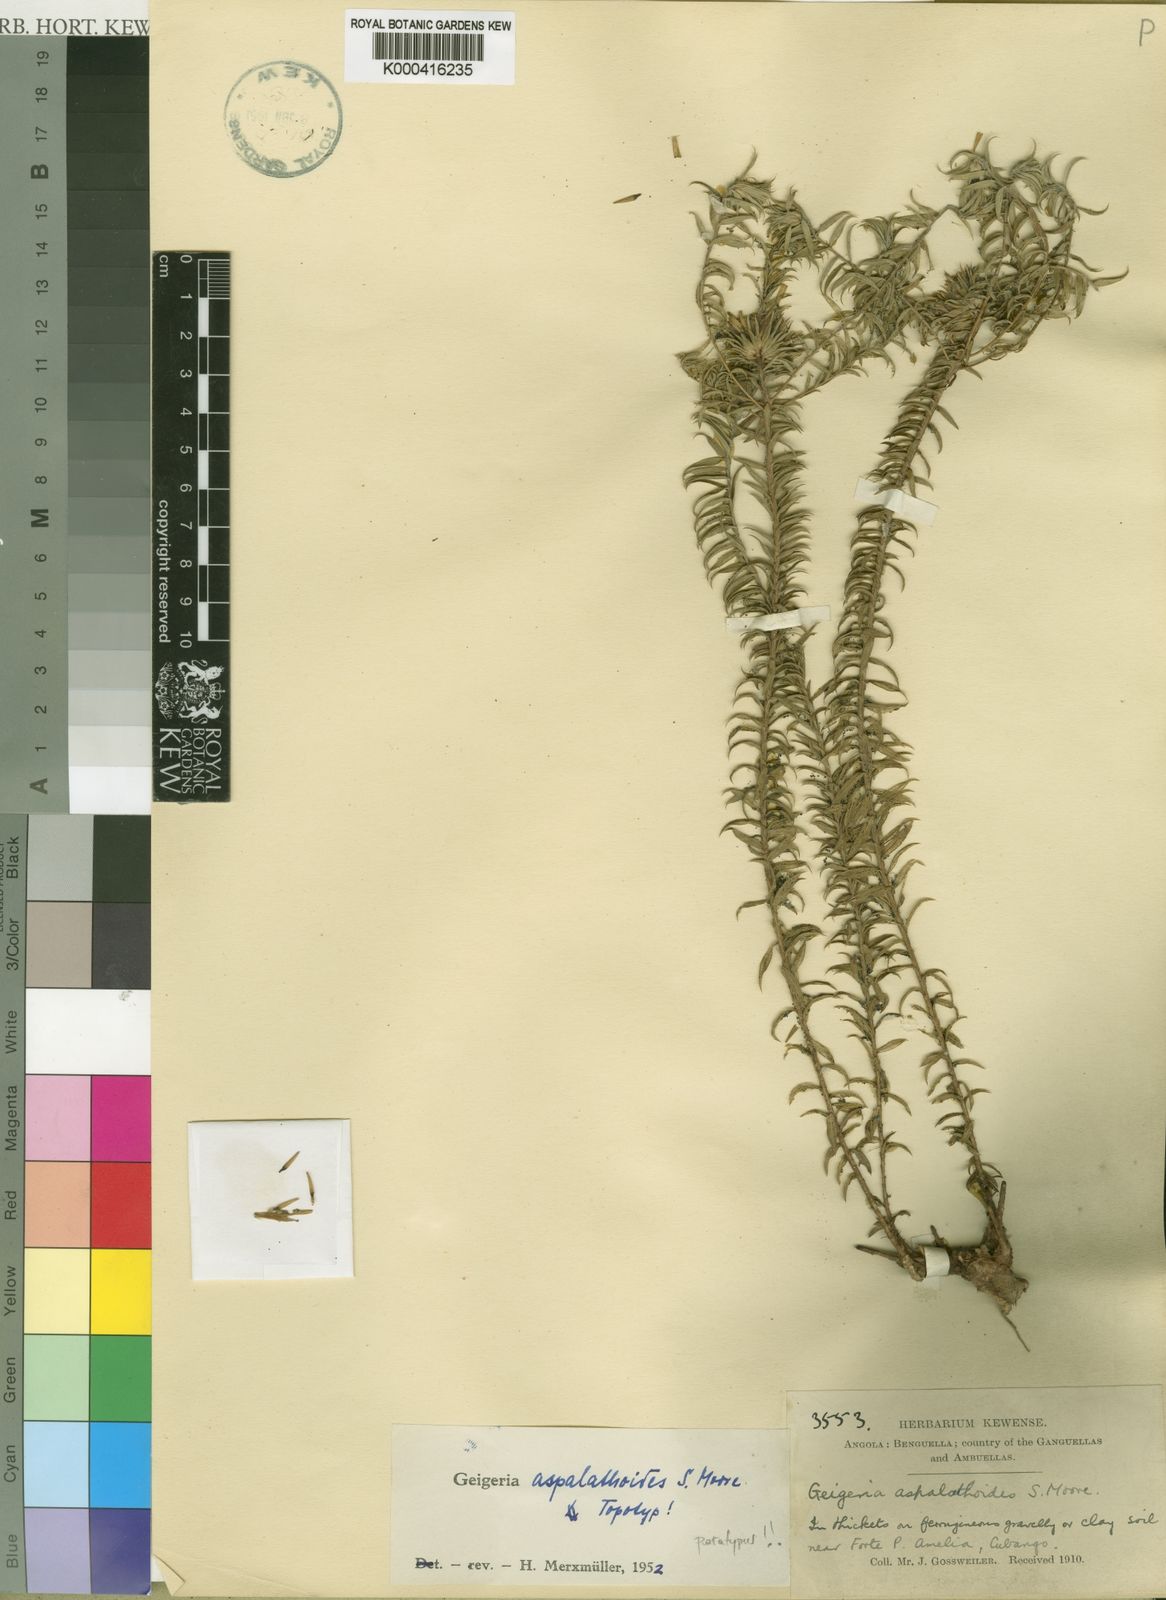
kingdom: Plantae
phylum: Tracheophyta
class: Magnoliopsida
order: Asterales
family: Asteraceae
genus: Geigeria
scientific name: Geigeria aspalathoides
